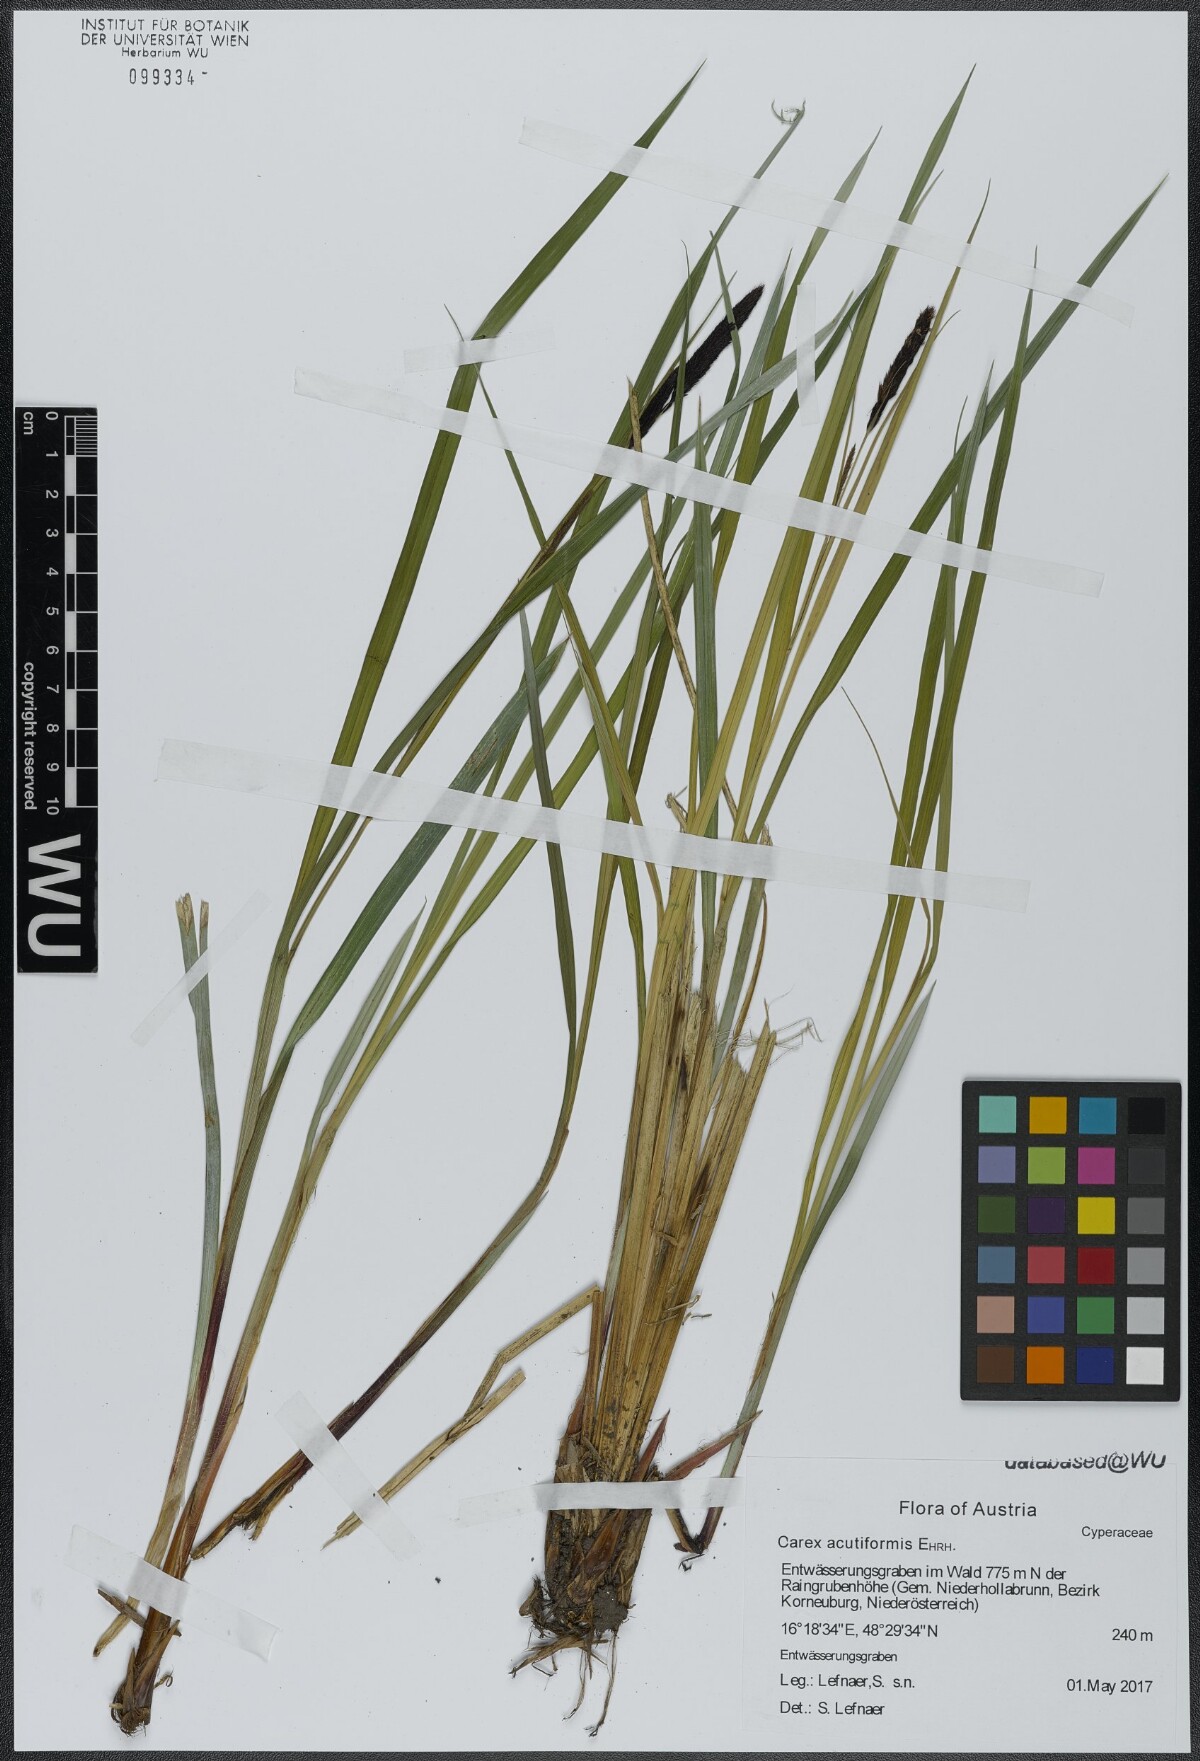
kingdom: Plantae
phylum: Tracheophyta
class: Liliopsida
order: Poales
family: Cyperaceae
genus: Carex
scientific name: Carex acutiformis
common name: Lesser pond-sedge
